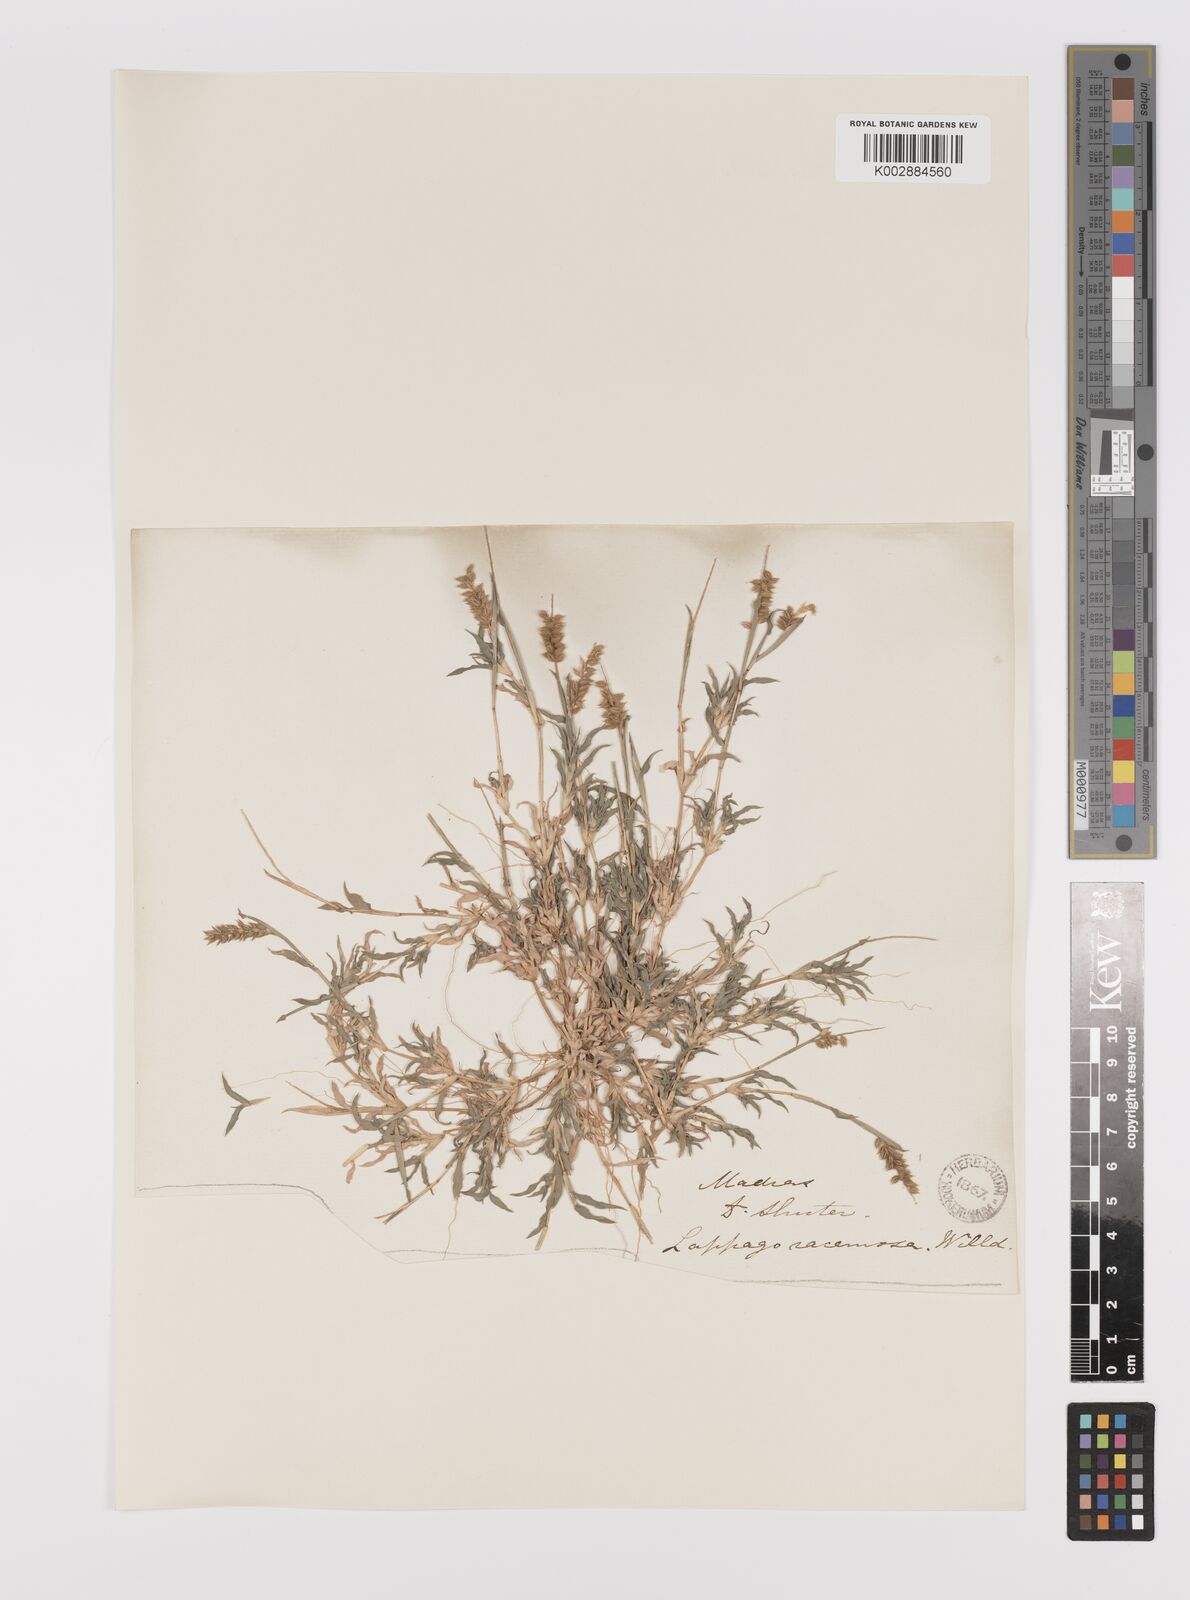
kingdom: Plantae
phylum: Tracheophyta
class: Liliopsida
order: Poales
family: Poaceae
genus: Tragus
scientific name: Tragus mongolorum
